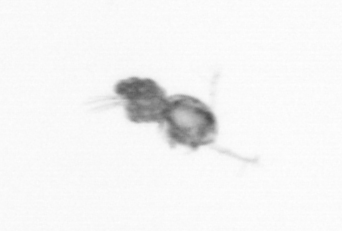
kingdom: Animalia
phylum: Arthropoda
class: Copepoda
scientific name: Copepoda
